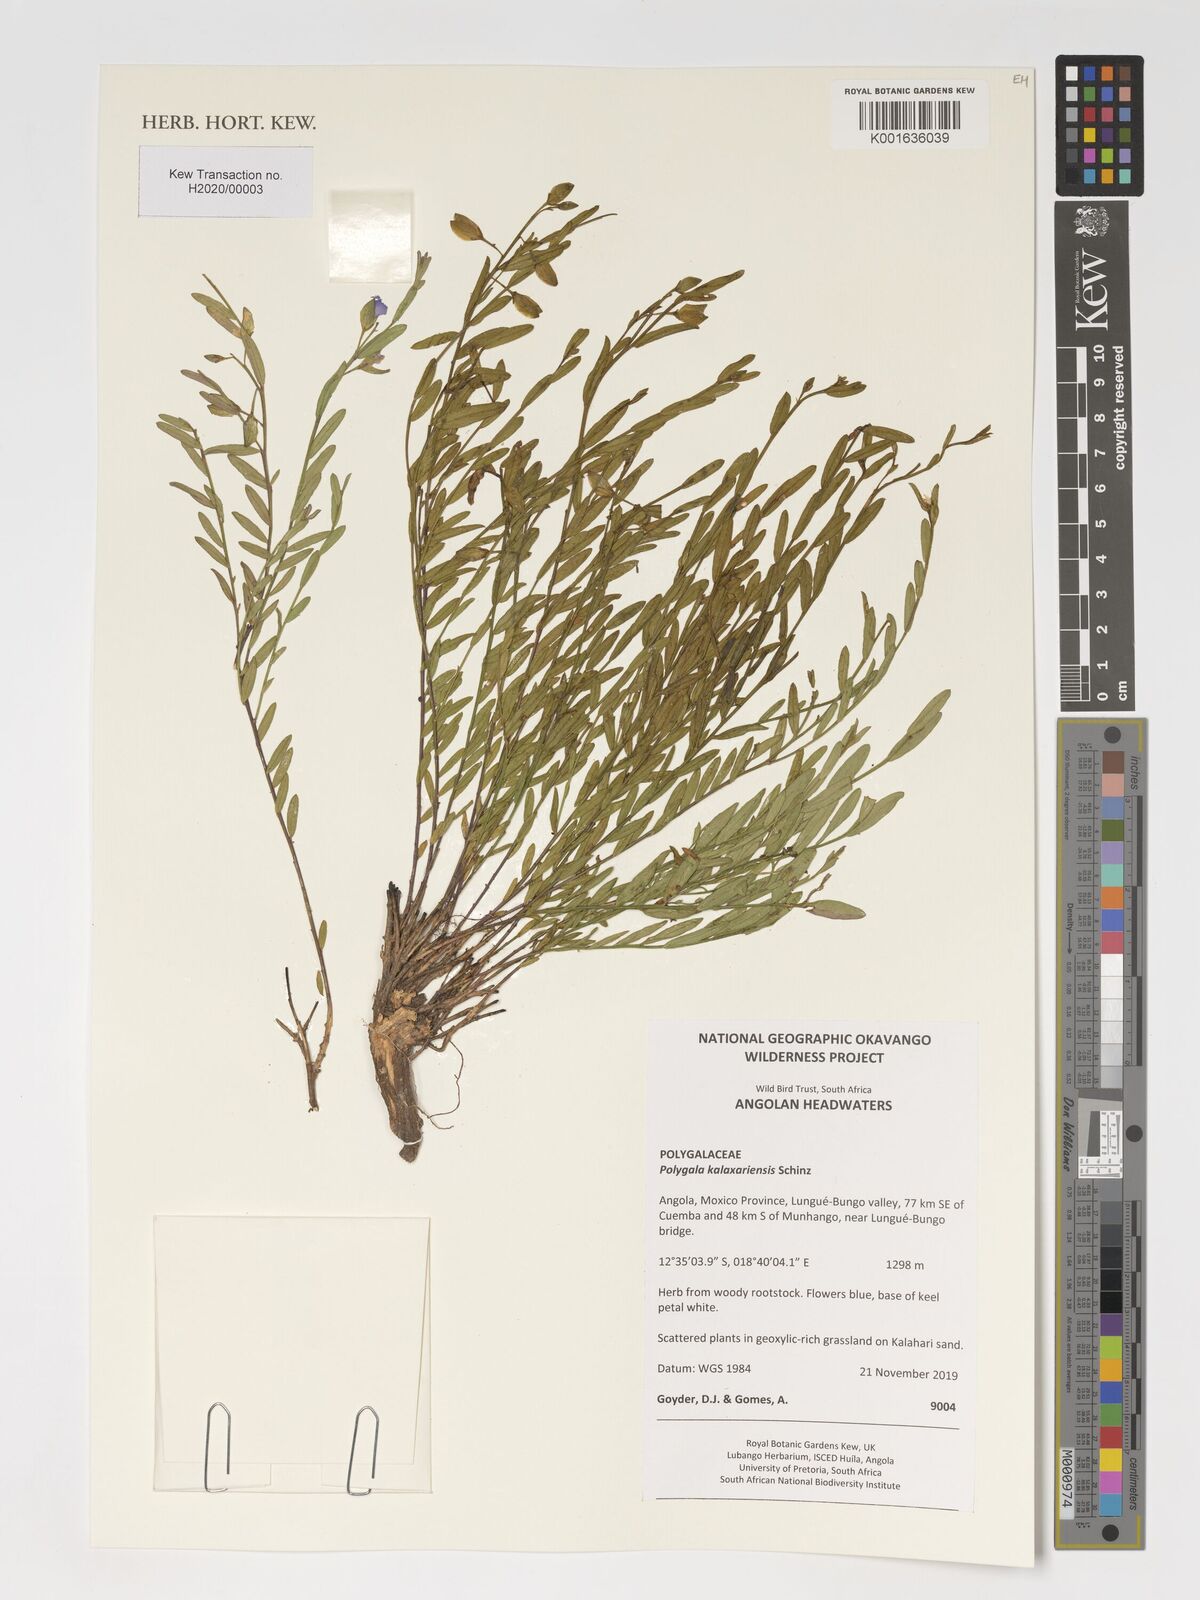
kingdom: Plantae
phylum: Tracheophyta
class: Magnoliopsida
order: Fabales
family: Polygalaceae
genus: Polygala
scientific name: Polygala kalaxariensis
